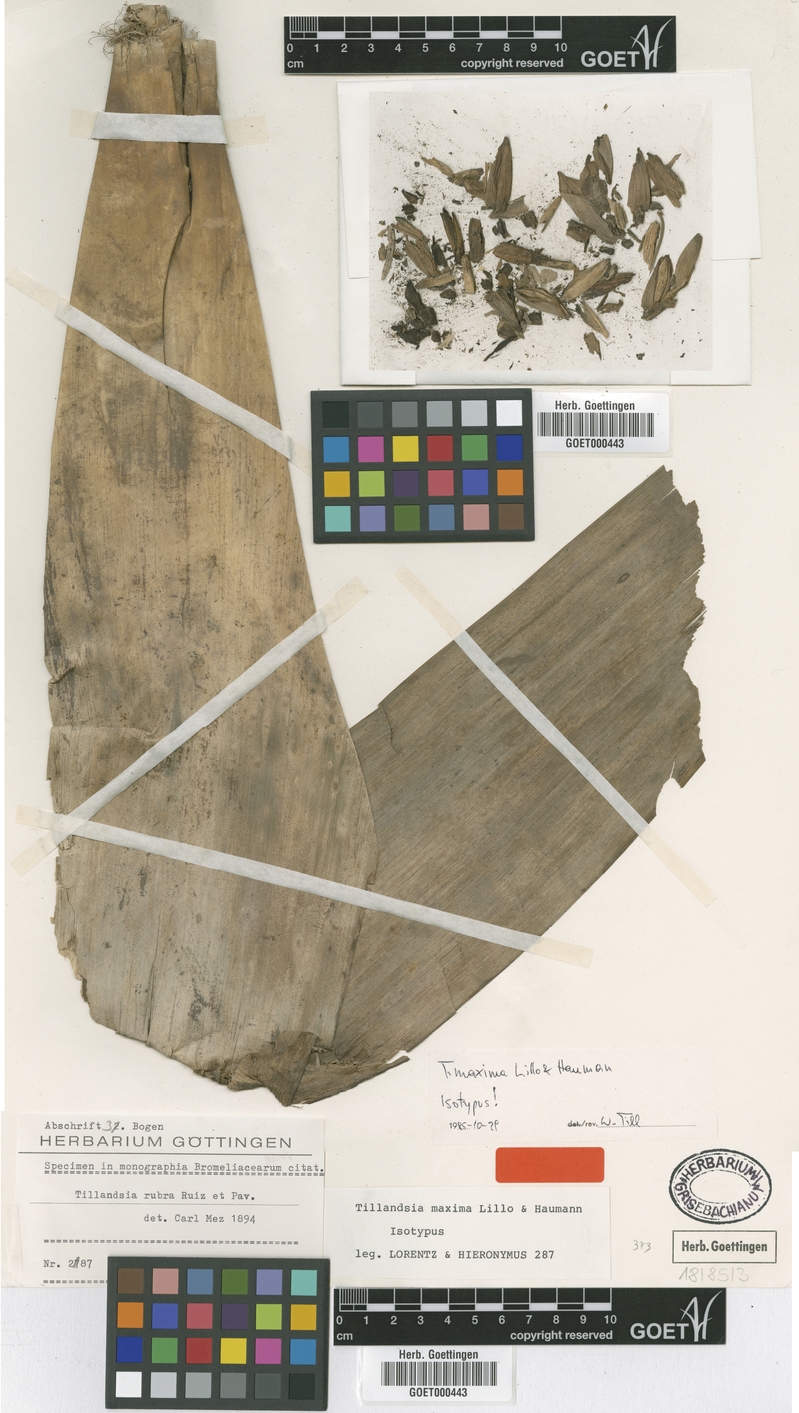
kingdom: Plantae
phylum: Tracheophyta
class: Liliopsida
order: Poales
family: Bromeliaceae
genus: Tillandsia
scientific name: Tillandsia australis
